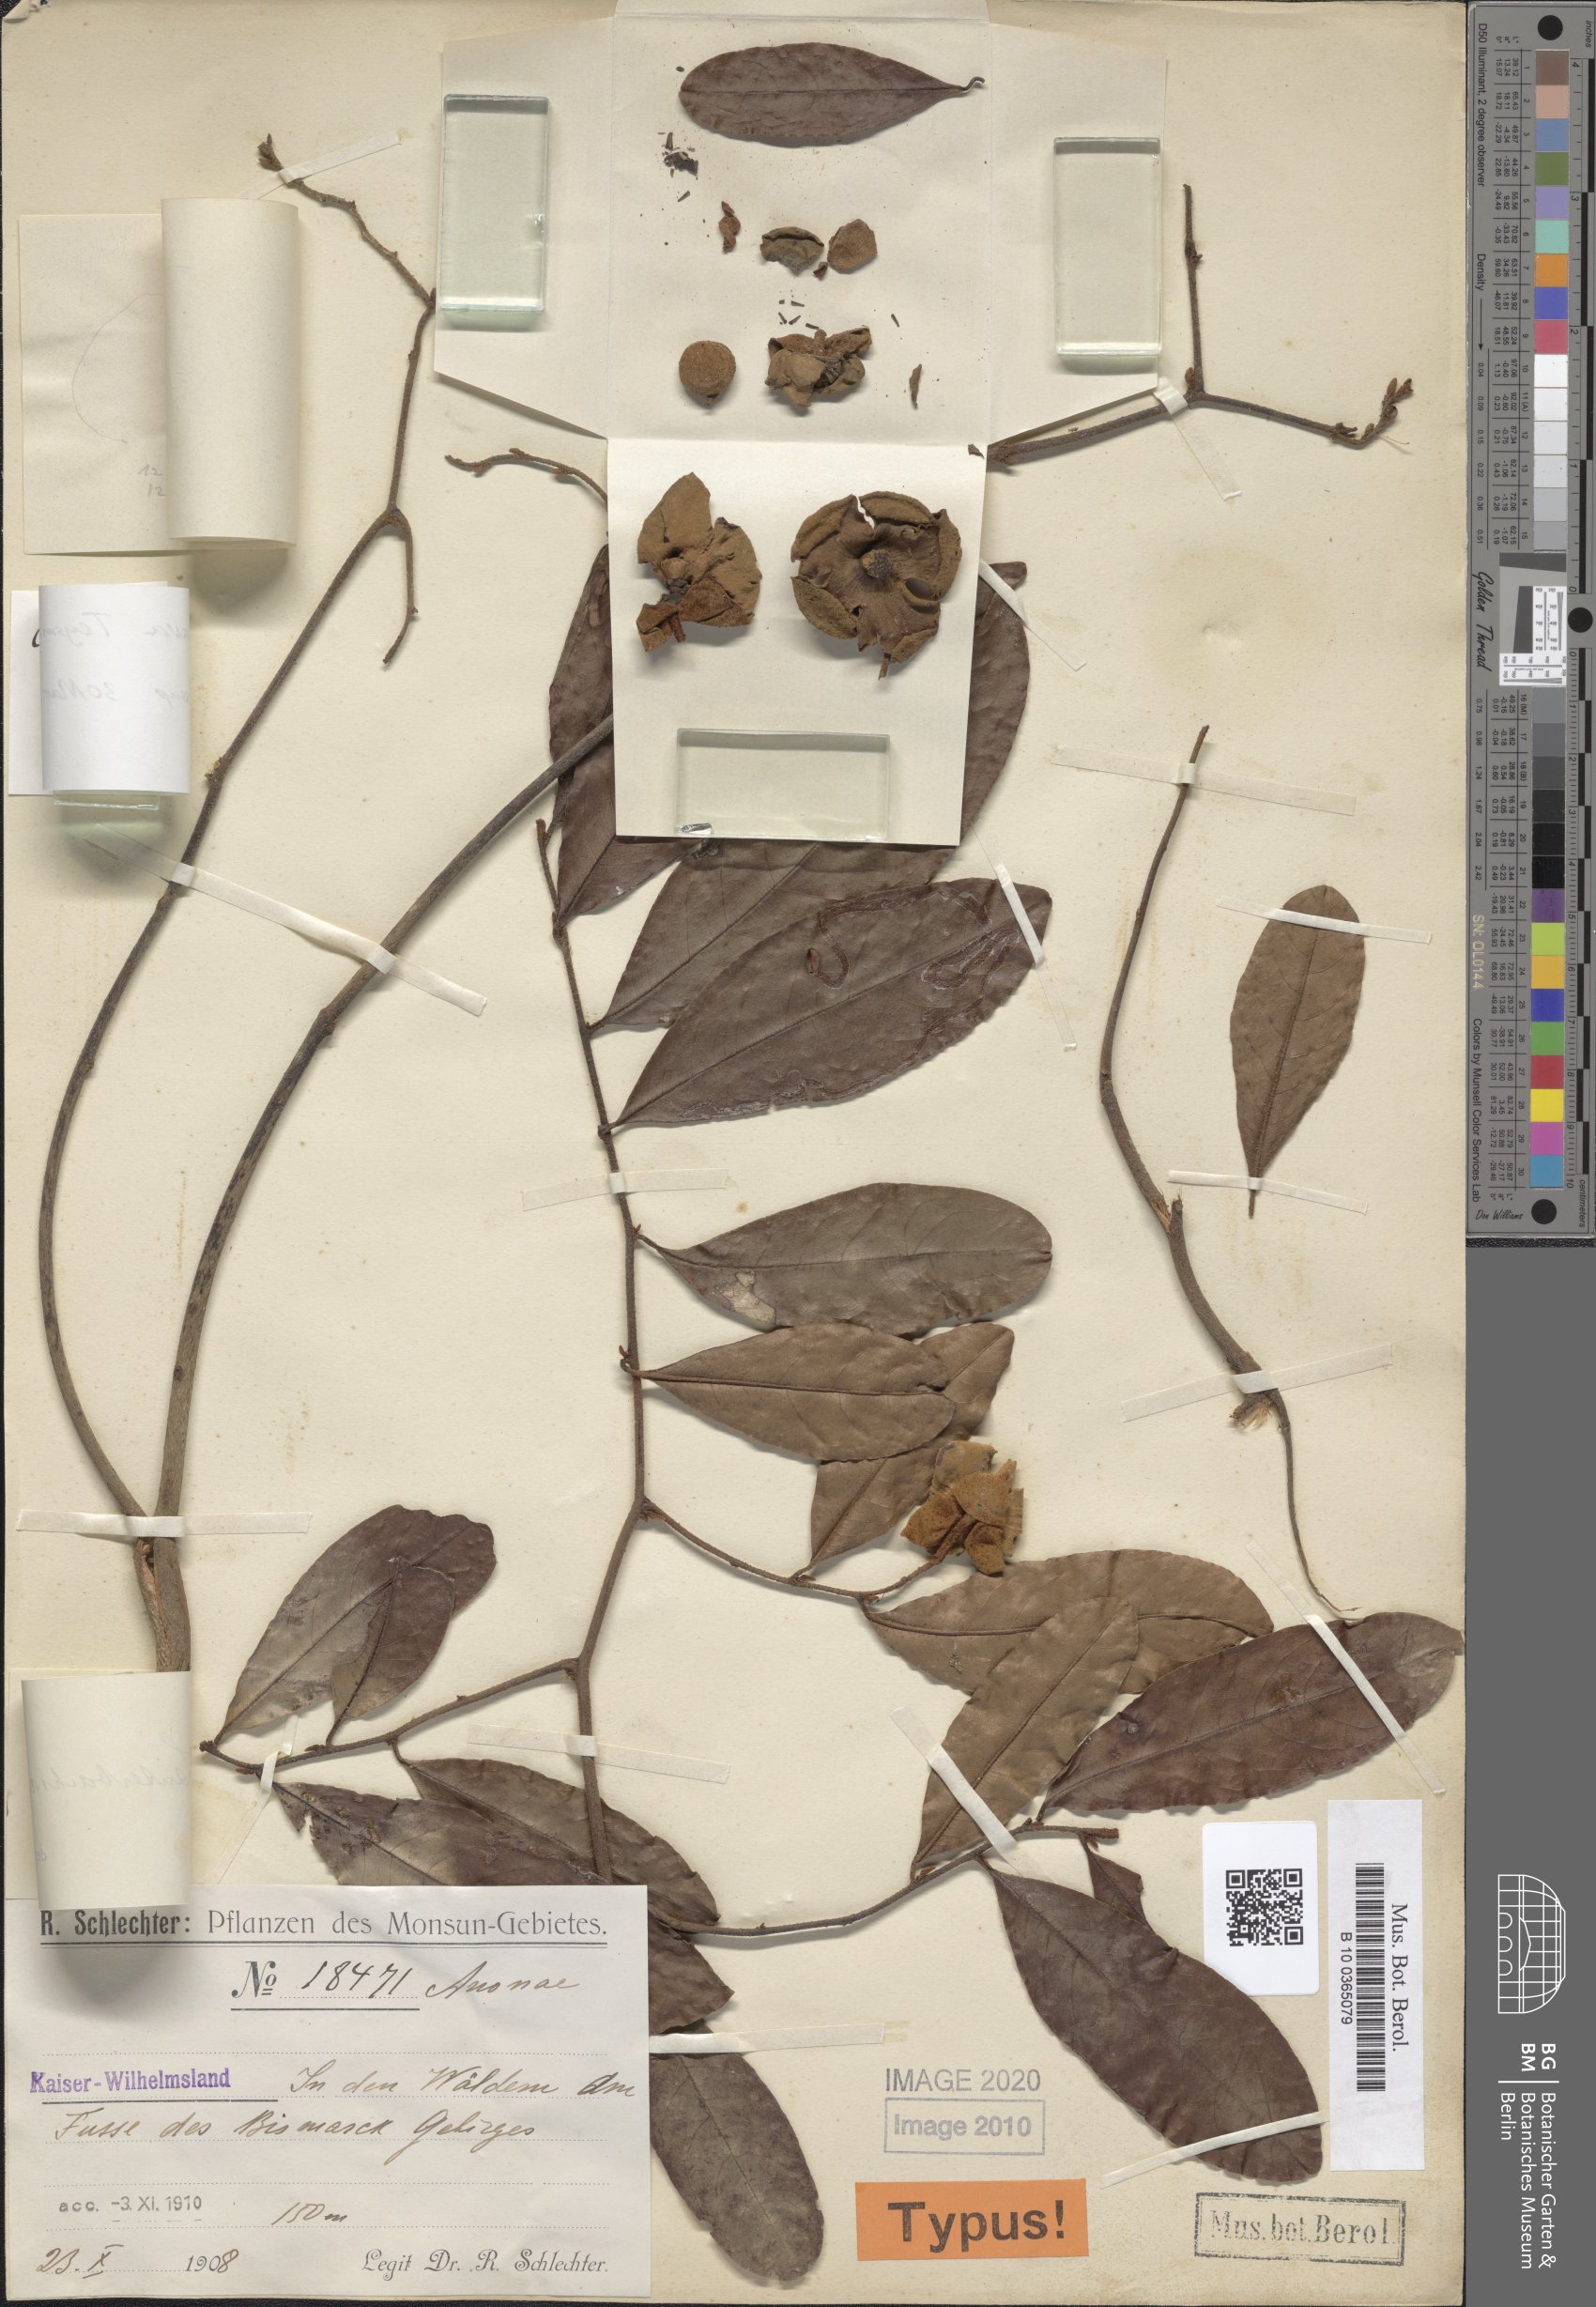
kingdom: Plantae
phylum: Tracheophyta
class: Magnoliopsida
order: Magnoliales
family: Annonaceae
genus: Uvaria
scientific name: Uvaria concava
